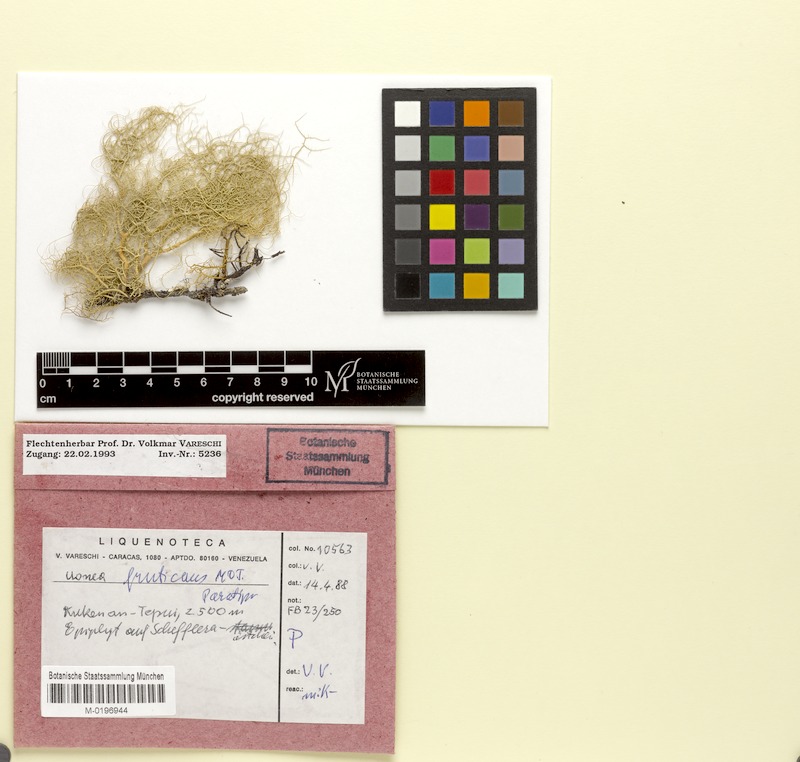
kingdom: Fungi
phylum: Ascomycota
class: Lecanoromycetes
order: Lecanorales
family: Parmeliaceae
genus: Usnea
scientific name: Usnea fruticans
